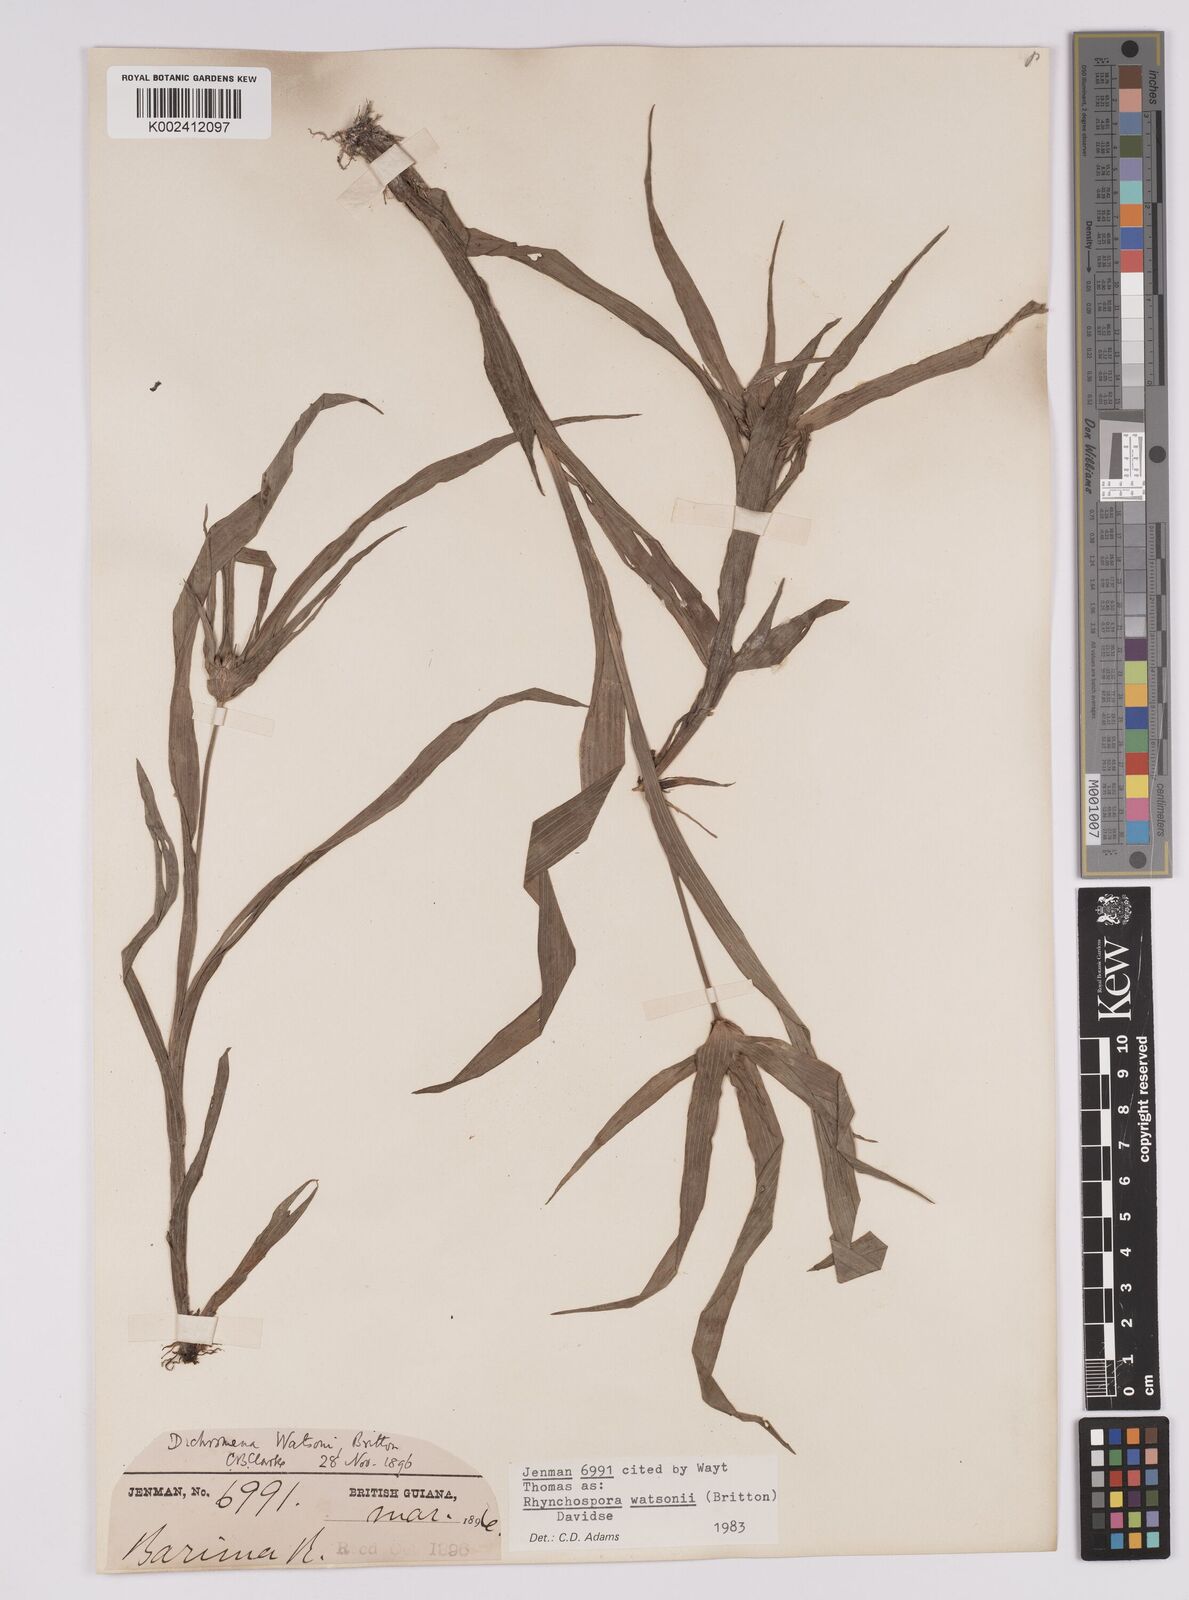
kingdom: Plantae
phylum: Tracheophyta
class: Liliopsida
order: Poales
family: Cyperaceae
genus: Rhynchospora
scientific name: Rhynchospora watsonii
